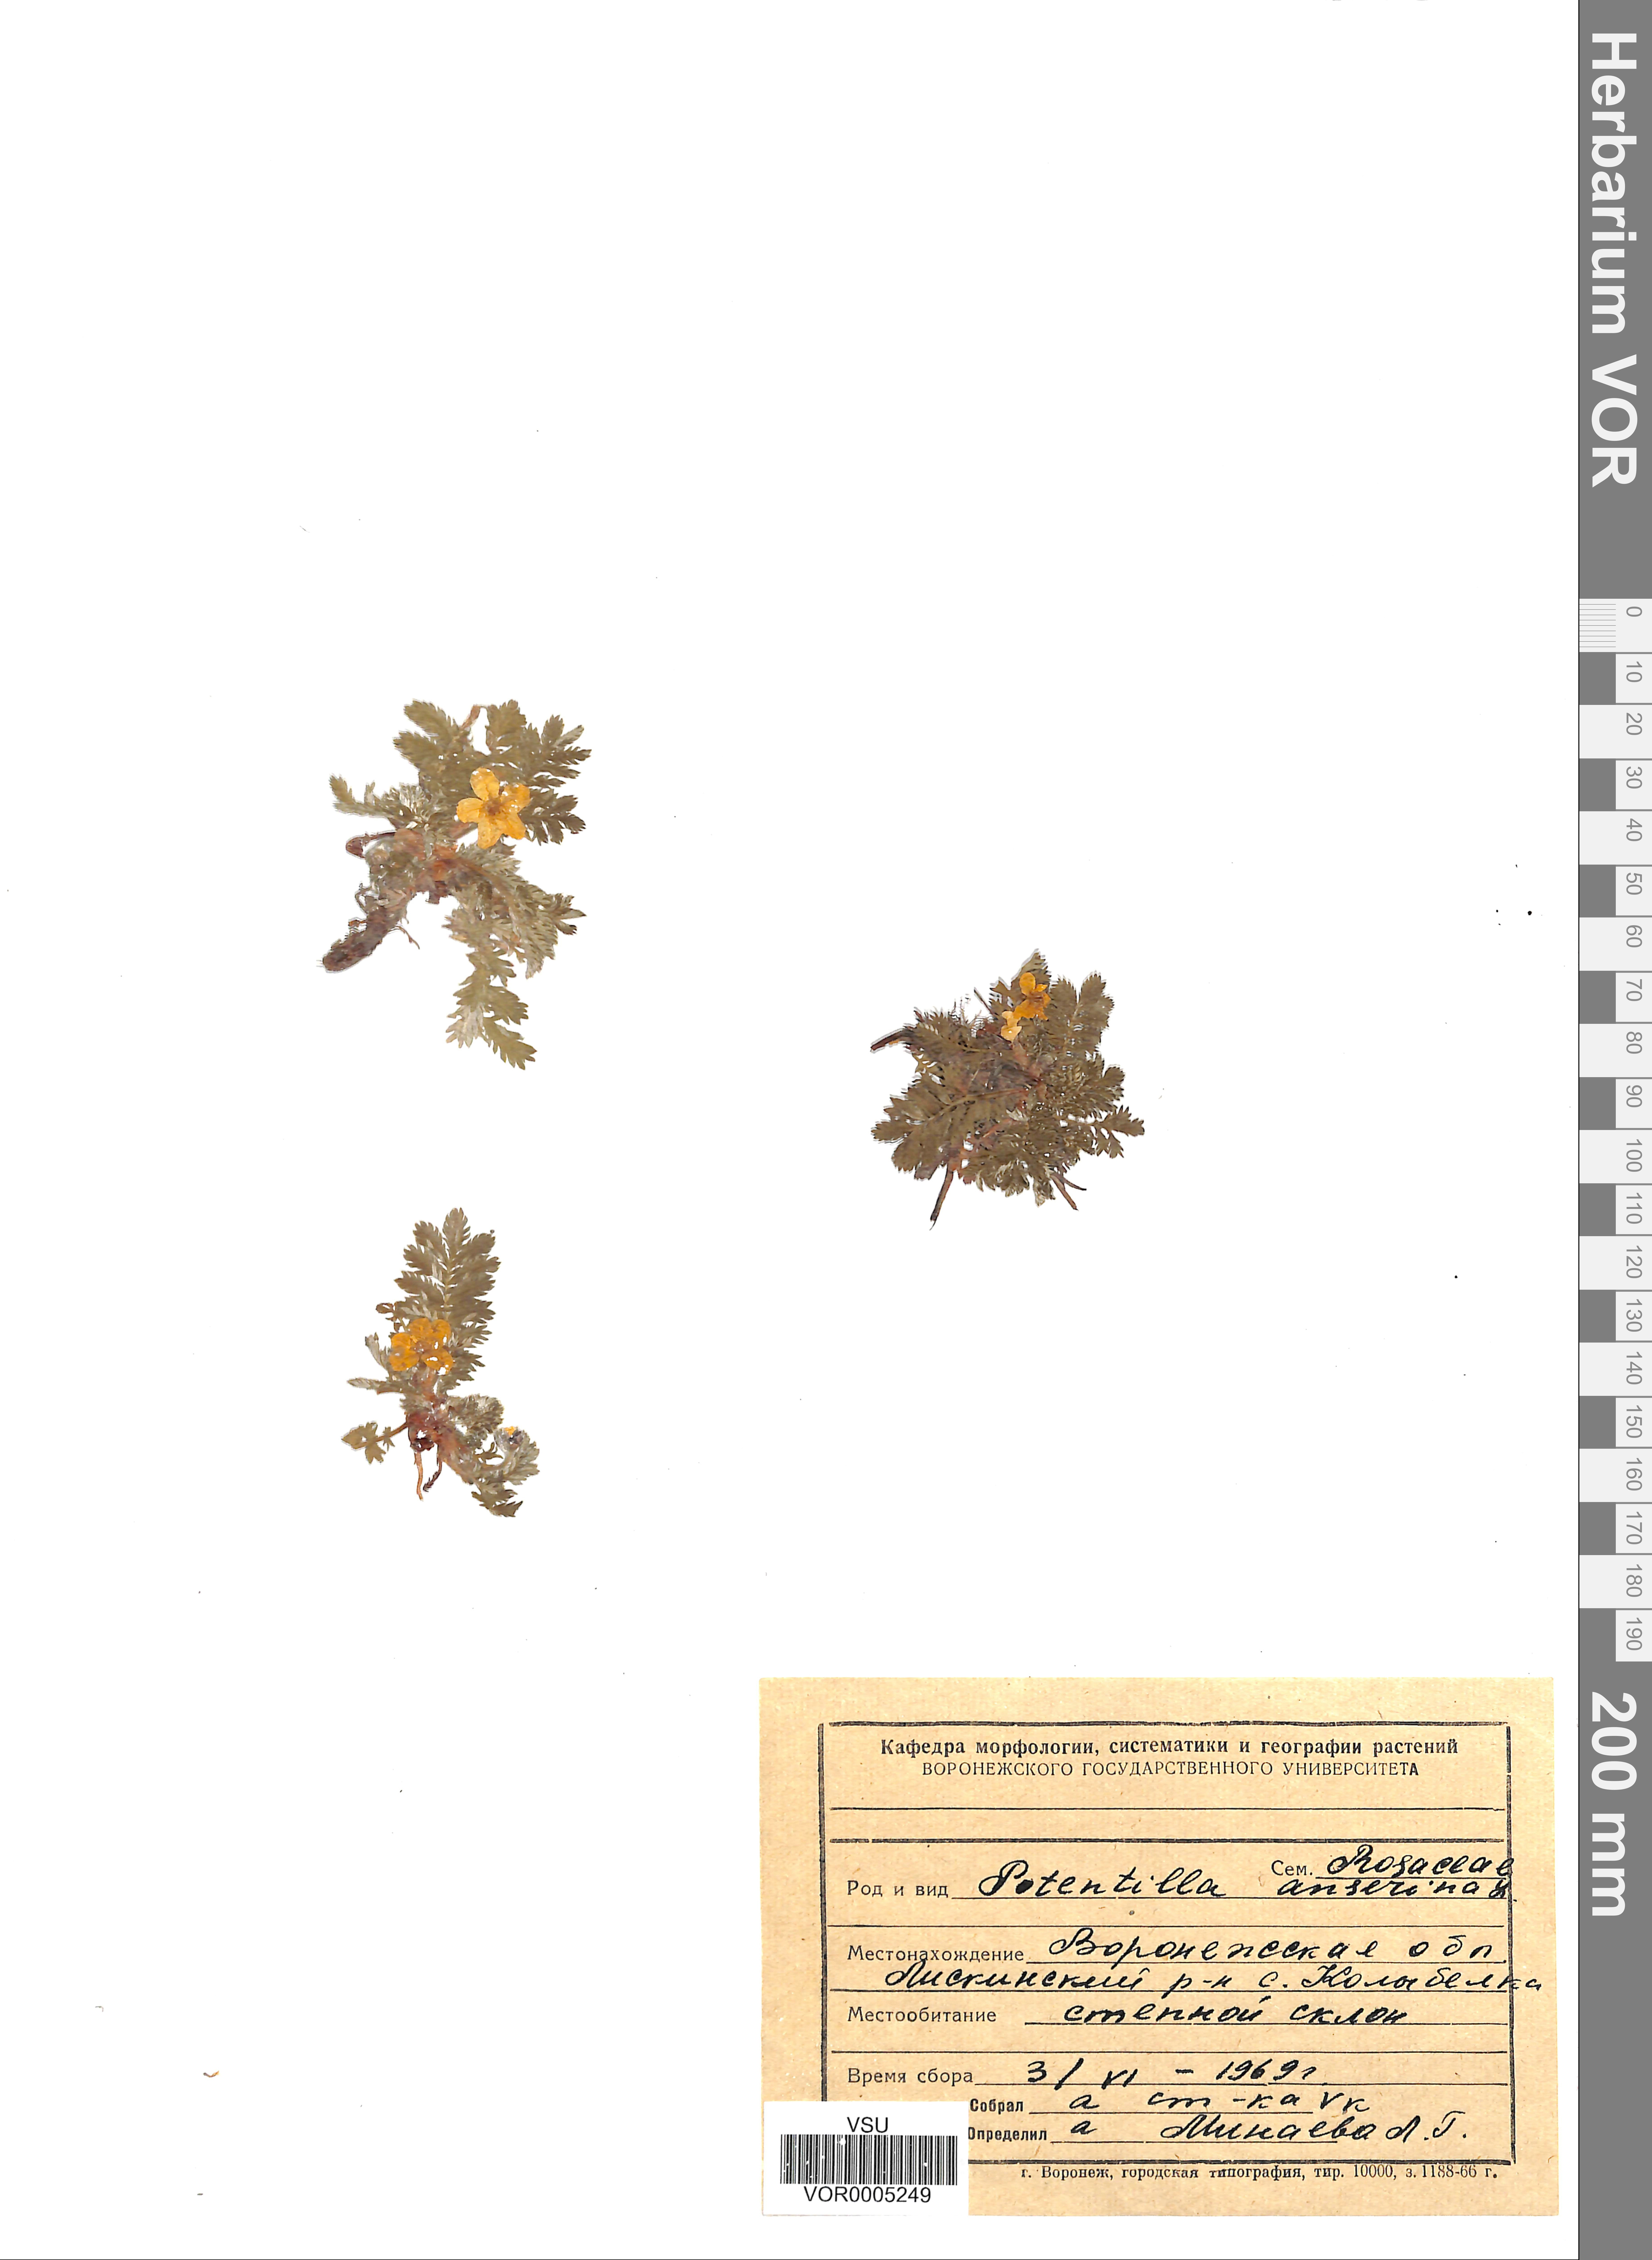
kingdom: Plantae
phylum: Tracheophyta
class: Magnoliopsida
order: Rosales
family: Rosaceae
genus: Argentina
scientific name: Argentina anserina
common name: Common silverweed
